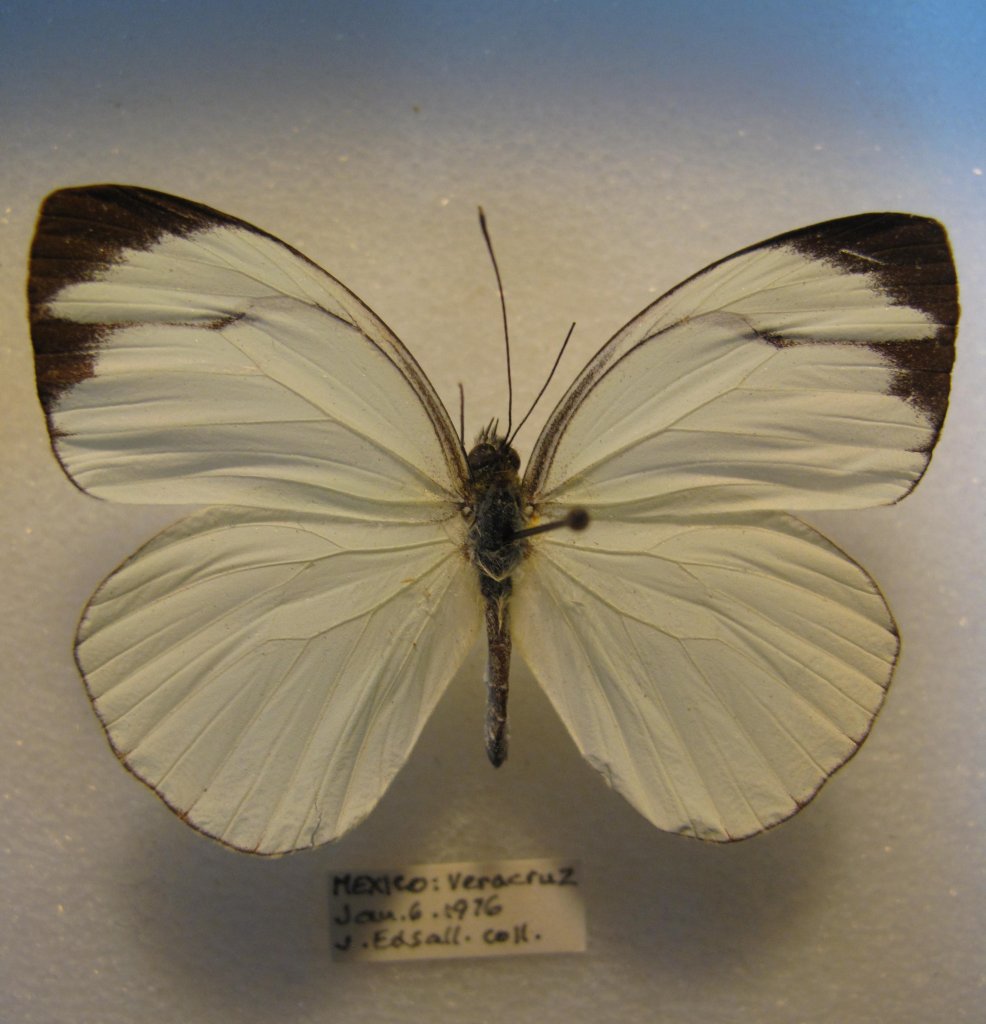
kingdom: Animalia
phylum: Arthropoda
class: Insecta
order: Lepidoptera
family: Pieridae
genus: Itaballia
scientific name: Itaballia pandosia
